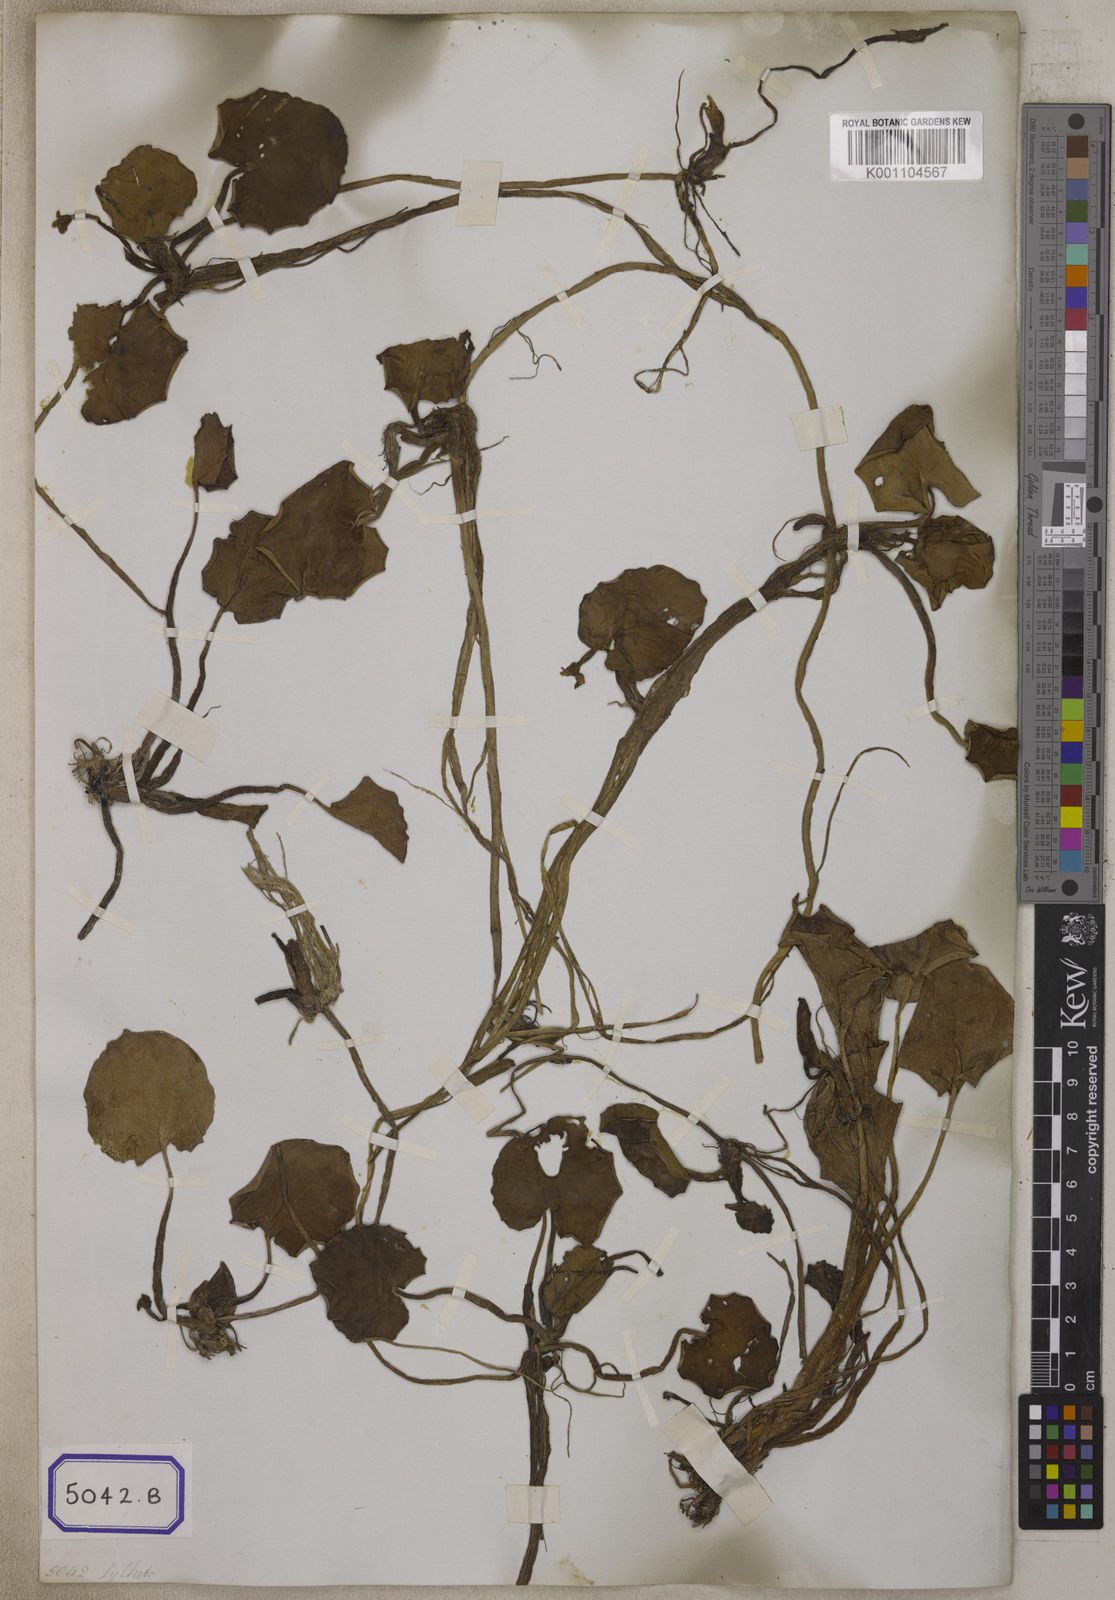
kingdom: Plantae
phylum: Tracheophyta
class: Liliopsida
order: Alismatales
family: Hydrocharitaceae
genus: Hydrocharis
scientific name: Hydrocharis
